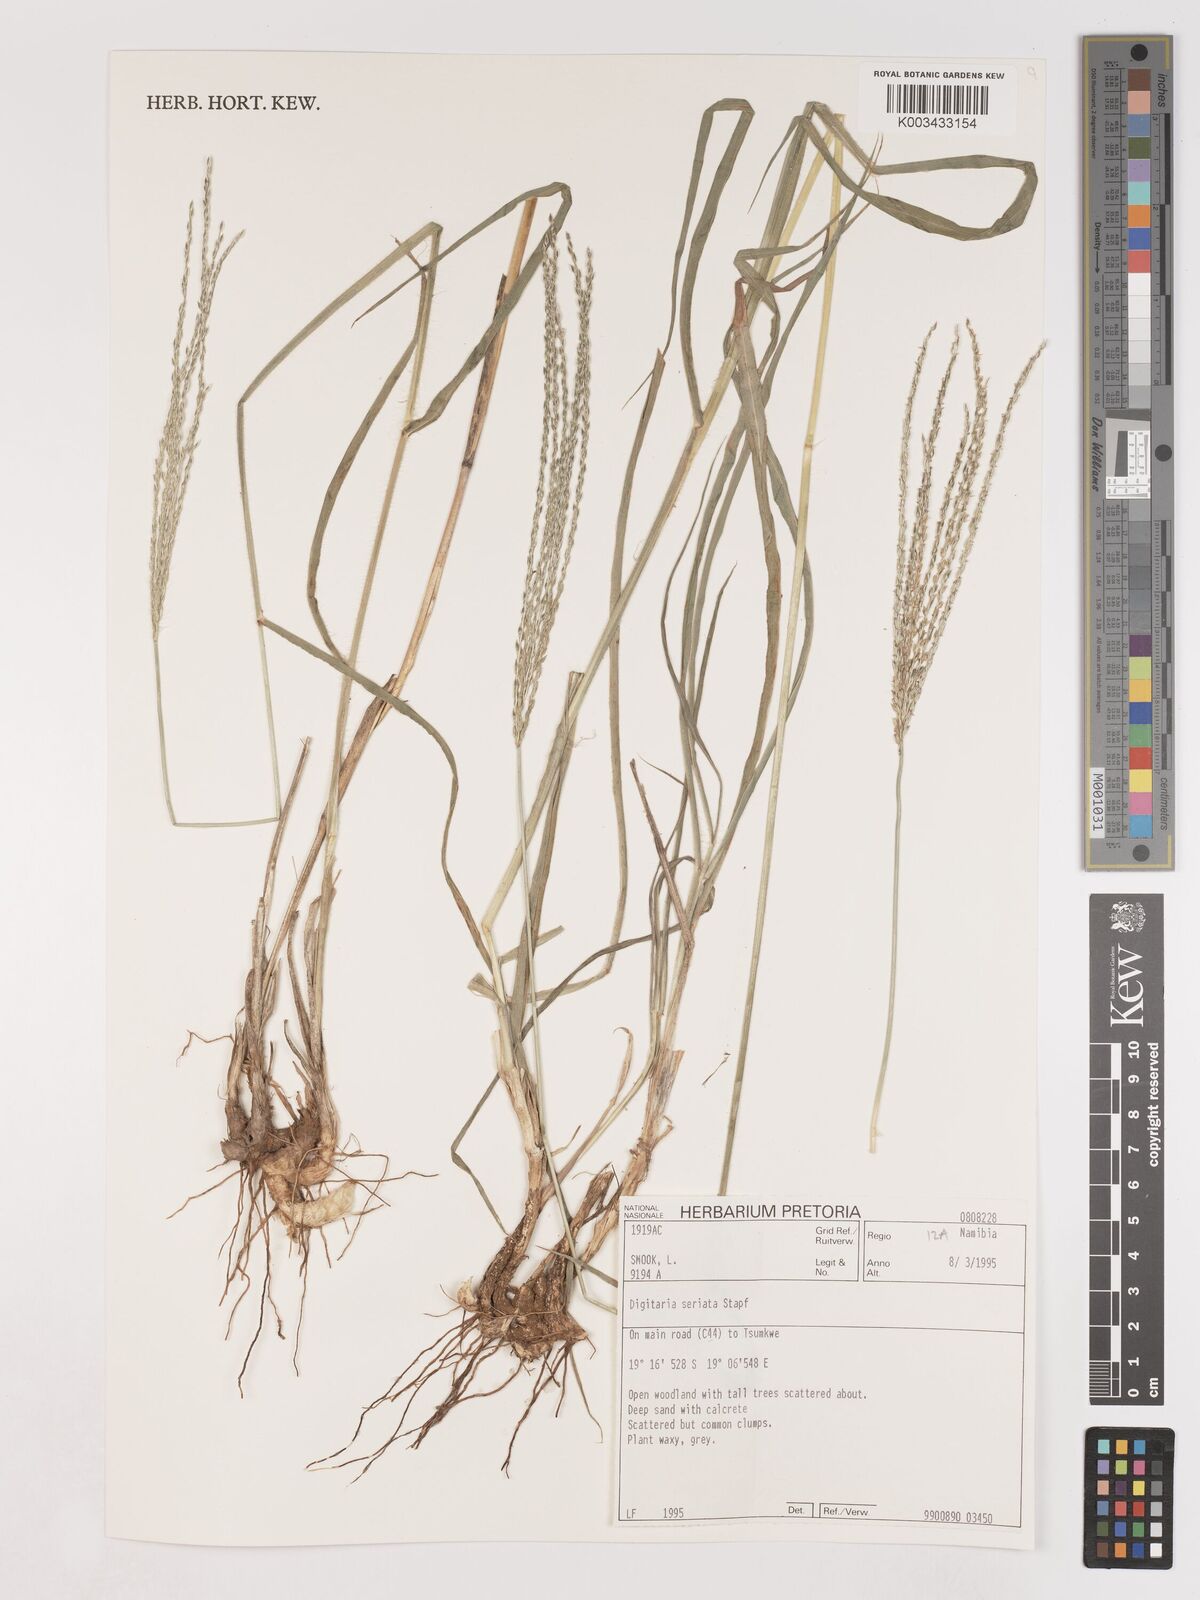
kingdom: Plantae
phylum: Tracheophyta
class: Liliopsida
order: Poales
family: Poaceae
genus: Digitaria
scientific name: Digitaria milanjiana
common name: Madagascar crabgrass
